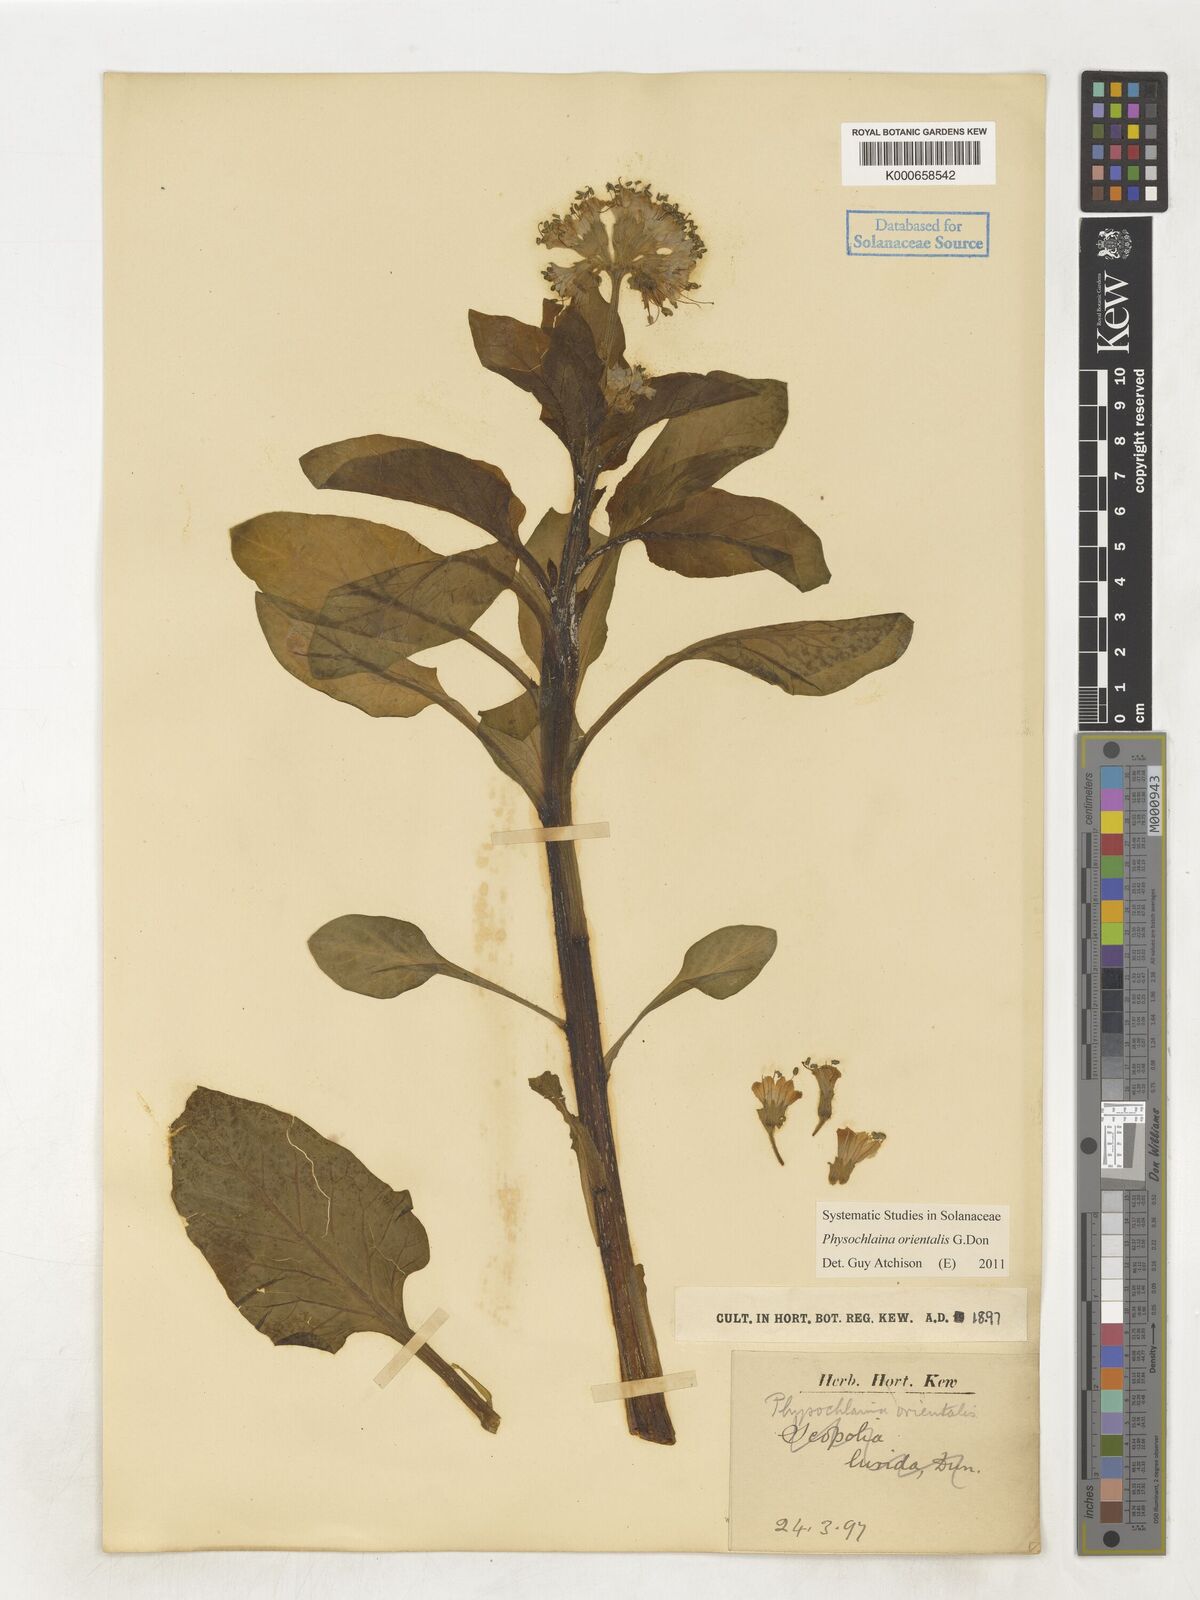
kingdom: Plantae
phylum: Tracheophyta
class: Magnoliopsida
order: Solanales
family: Solanaceae
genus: Physochlaina
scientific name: Physochlaina orientalis
